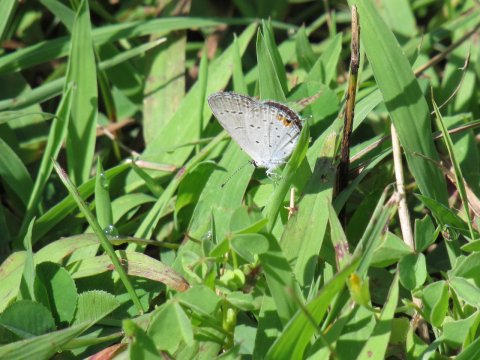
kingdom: Animalia
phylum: Arthropoda
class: Insecta
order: Lepidoptera
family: Lycaenidae
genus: Elkalyce
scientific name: Elkalyce comyntas
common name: Eastern Tailed-Blue
